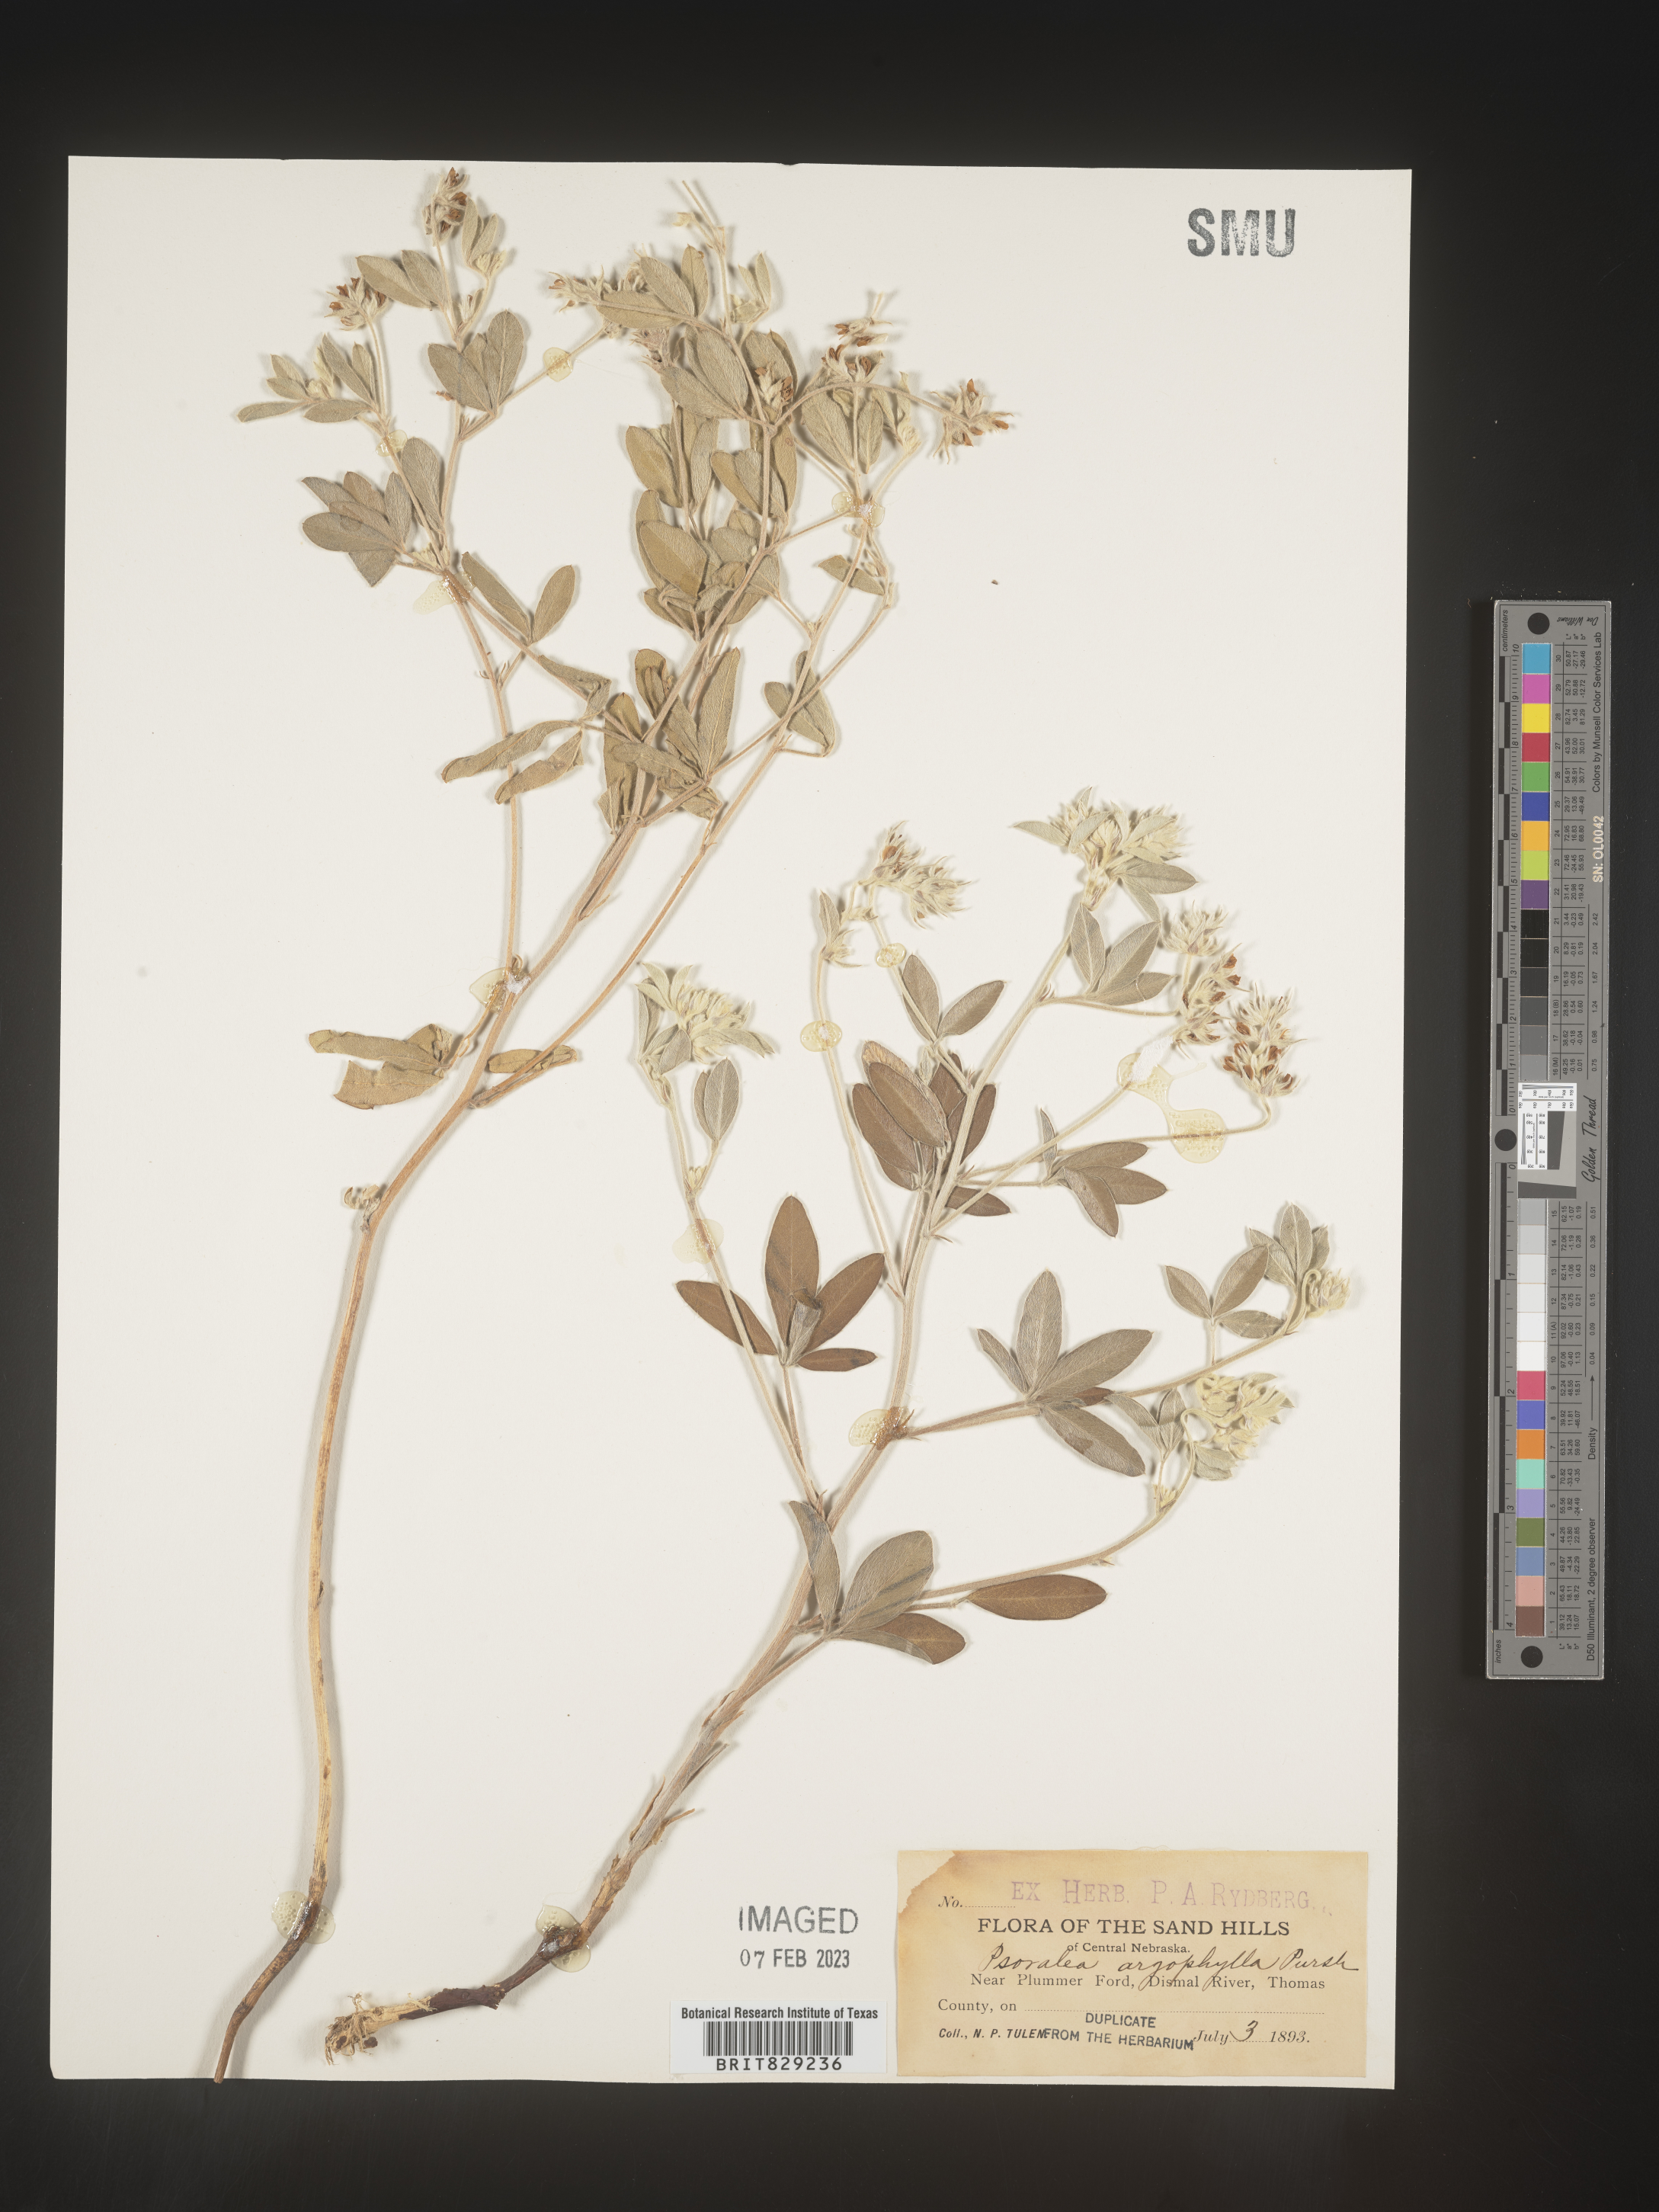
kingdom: Plantae
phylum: Tracheophyta
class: Magnoliopsida
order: Fabales
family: Fabaceae
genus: Pediomelum
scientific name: Pediomelum argophyllum
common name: Silver-leaved indian breadroot
